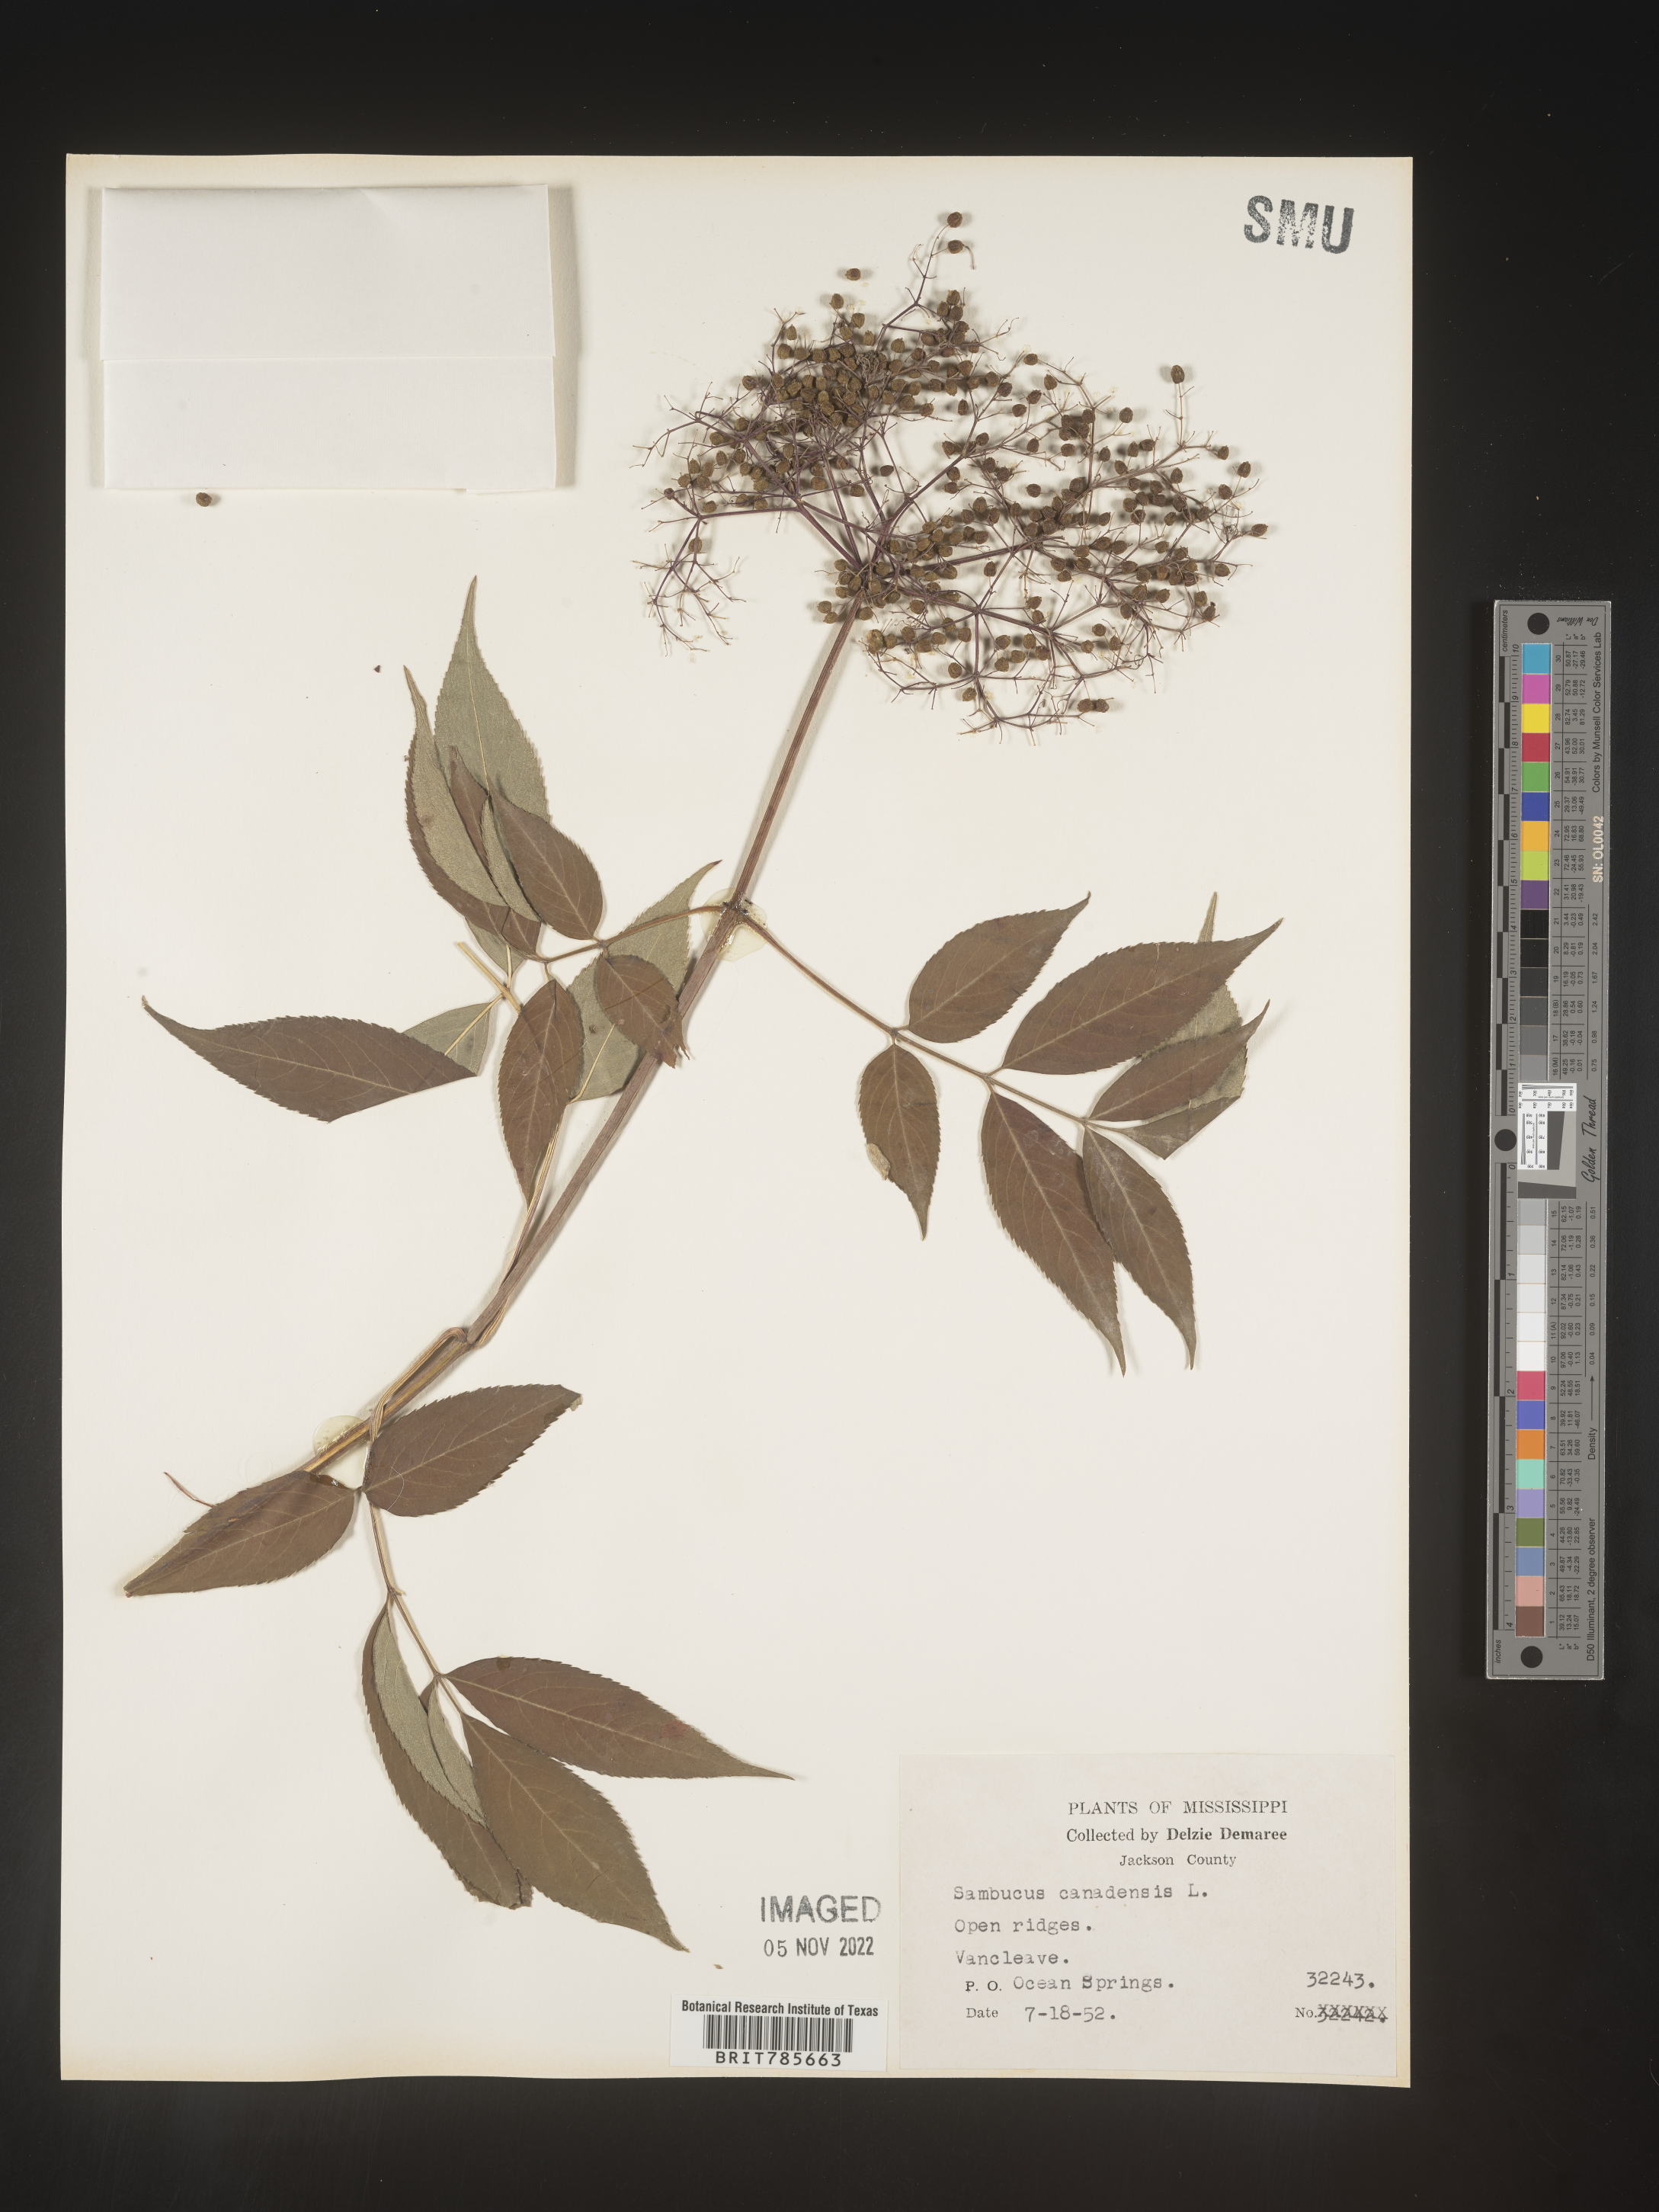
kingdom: Plantae
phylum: Tracheophyta
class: Magnoliopsida
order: Dipsacales
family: Viburnaceae
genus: Sambucus
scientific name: Sambucus canadensis
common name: American elder
